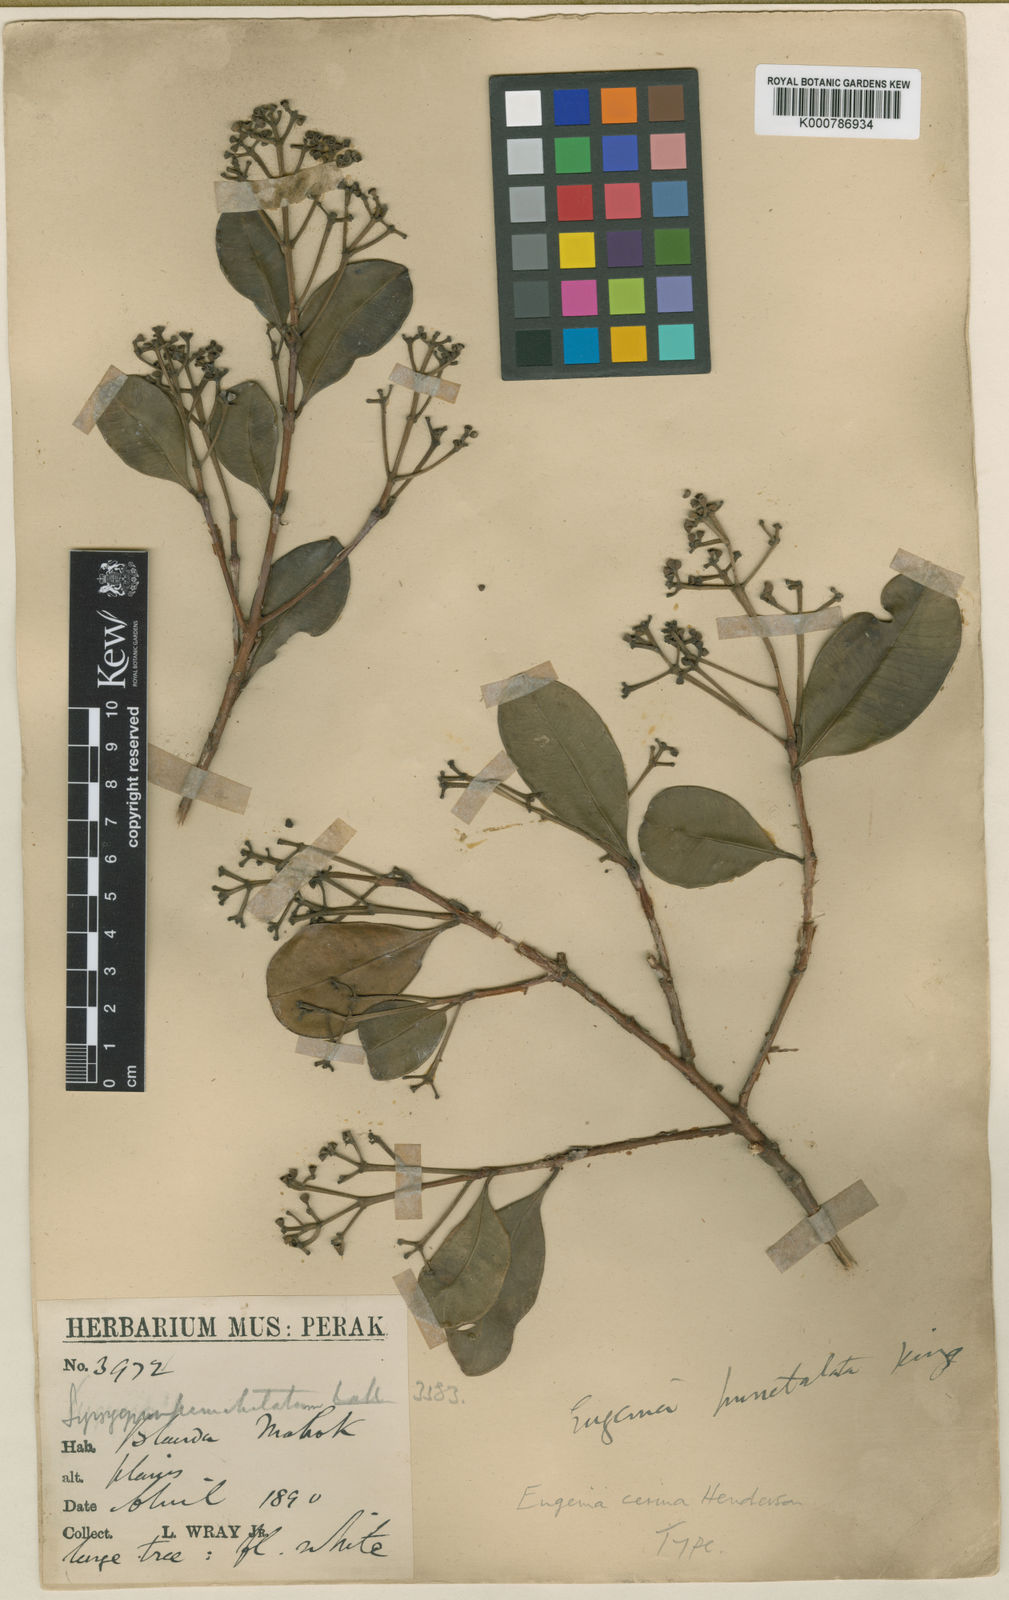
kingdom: Plantae
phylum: Tracheophyta
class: Magnoliopsida
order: Myrtales
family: Myrtaceae
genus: Syzygium
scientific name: Syzygium incarnatum
